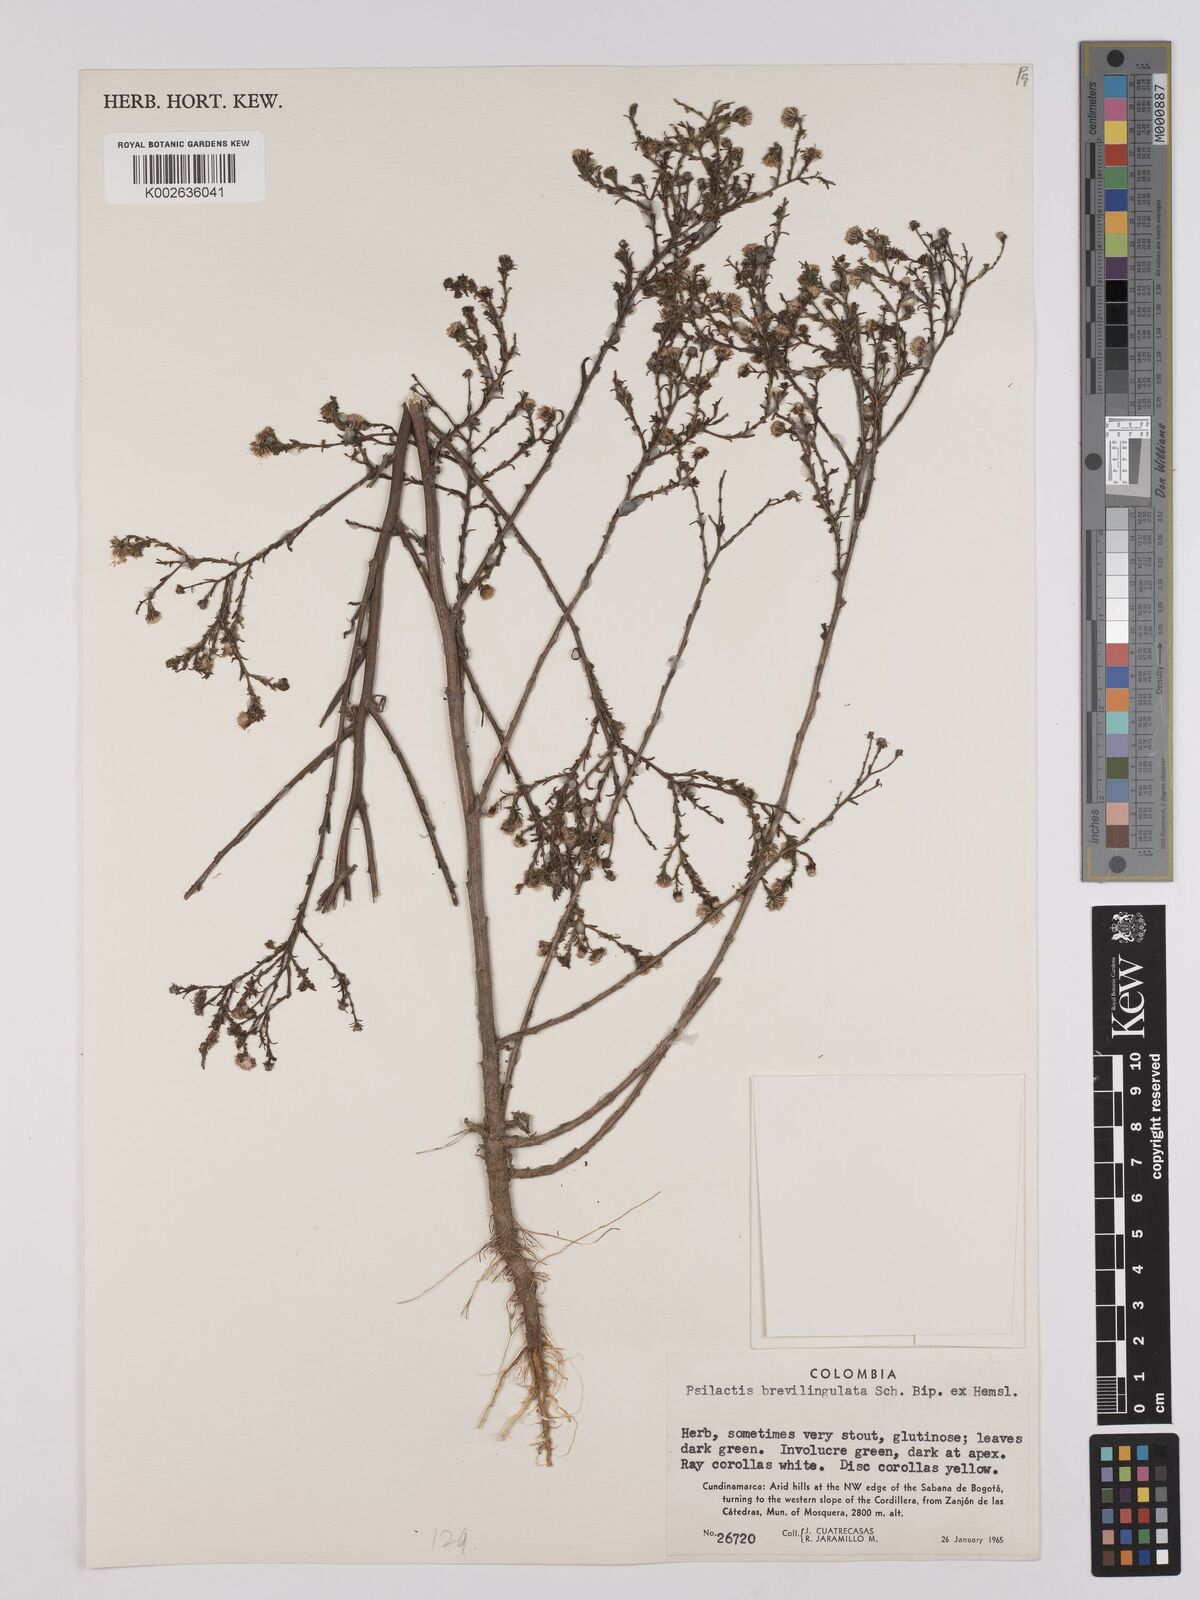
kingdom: Plantae
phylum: Tracheophyta
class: Magnoliopsida
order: Asterales
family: Asteraceae
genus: Psilactis
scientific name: Psilactis brevilingulata
